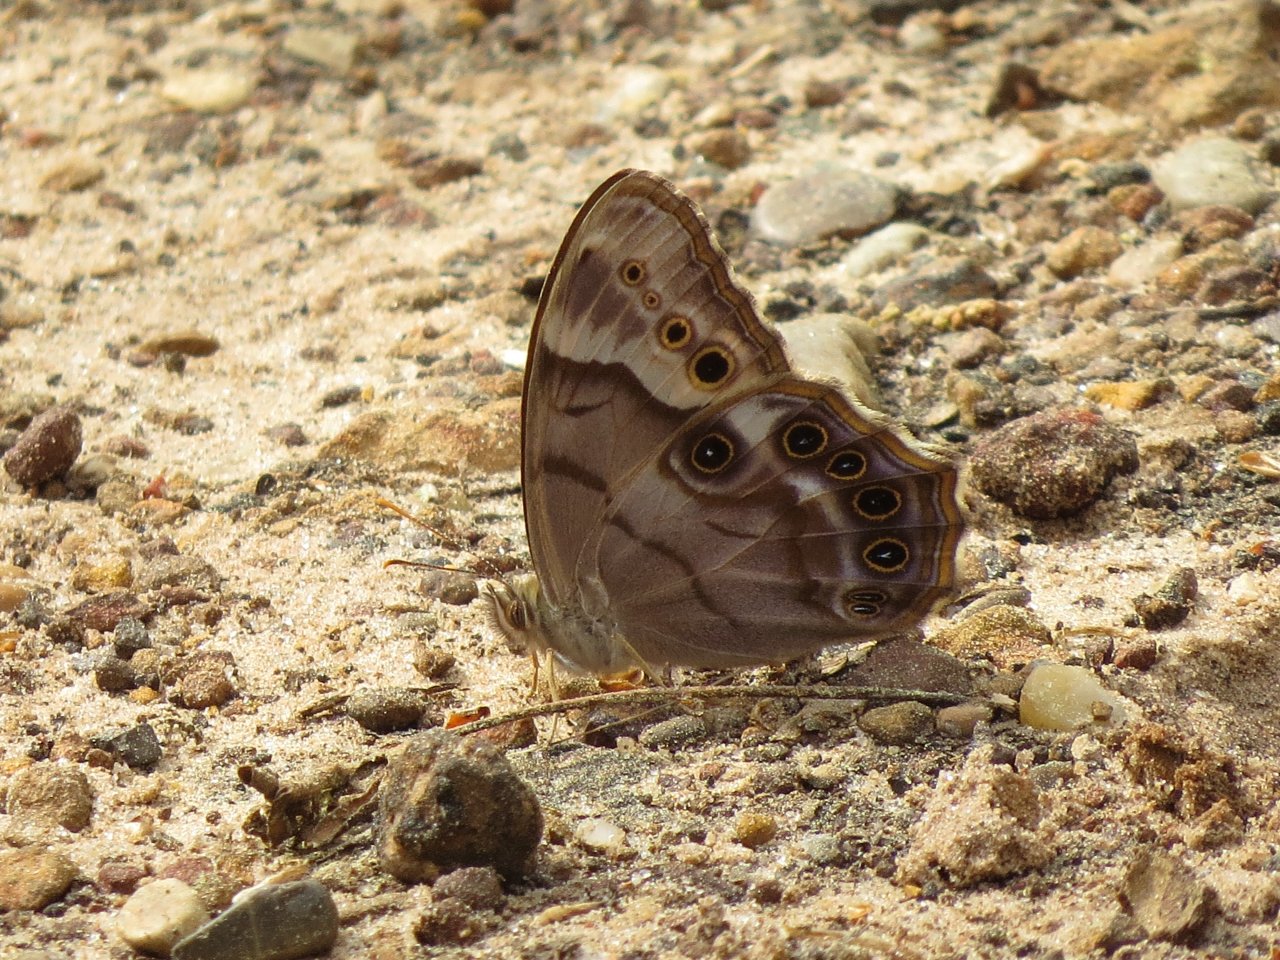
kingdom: Animalia
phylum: Arthropoda
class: Insecta
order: Lepidoptera
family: Nymphalidae
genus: Enodia
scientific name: Enodia portlandia
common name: Southern Pearly Eye
